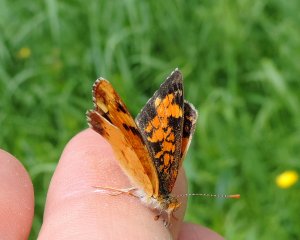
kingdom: Animalia
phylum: Arthropoda
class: Insecta
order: Lepidoptera
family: Nymphalidae
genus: Phyciodes
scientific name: Phyciodes tharos
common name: Northern Crescent
